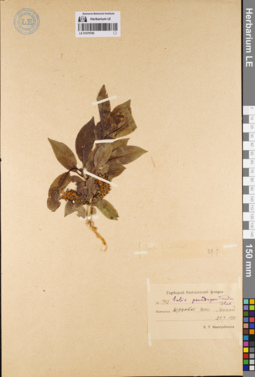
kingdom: Plantae
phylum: Tracheophyta
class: Magnoliopsida
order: Malpighiales
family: Salicaceae
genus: Salix
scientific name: Salix pseudopentandra
